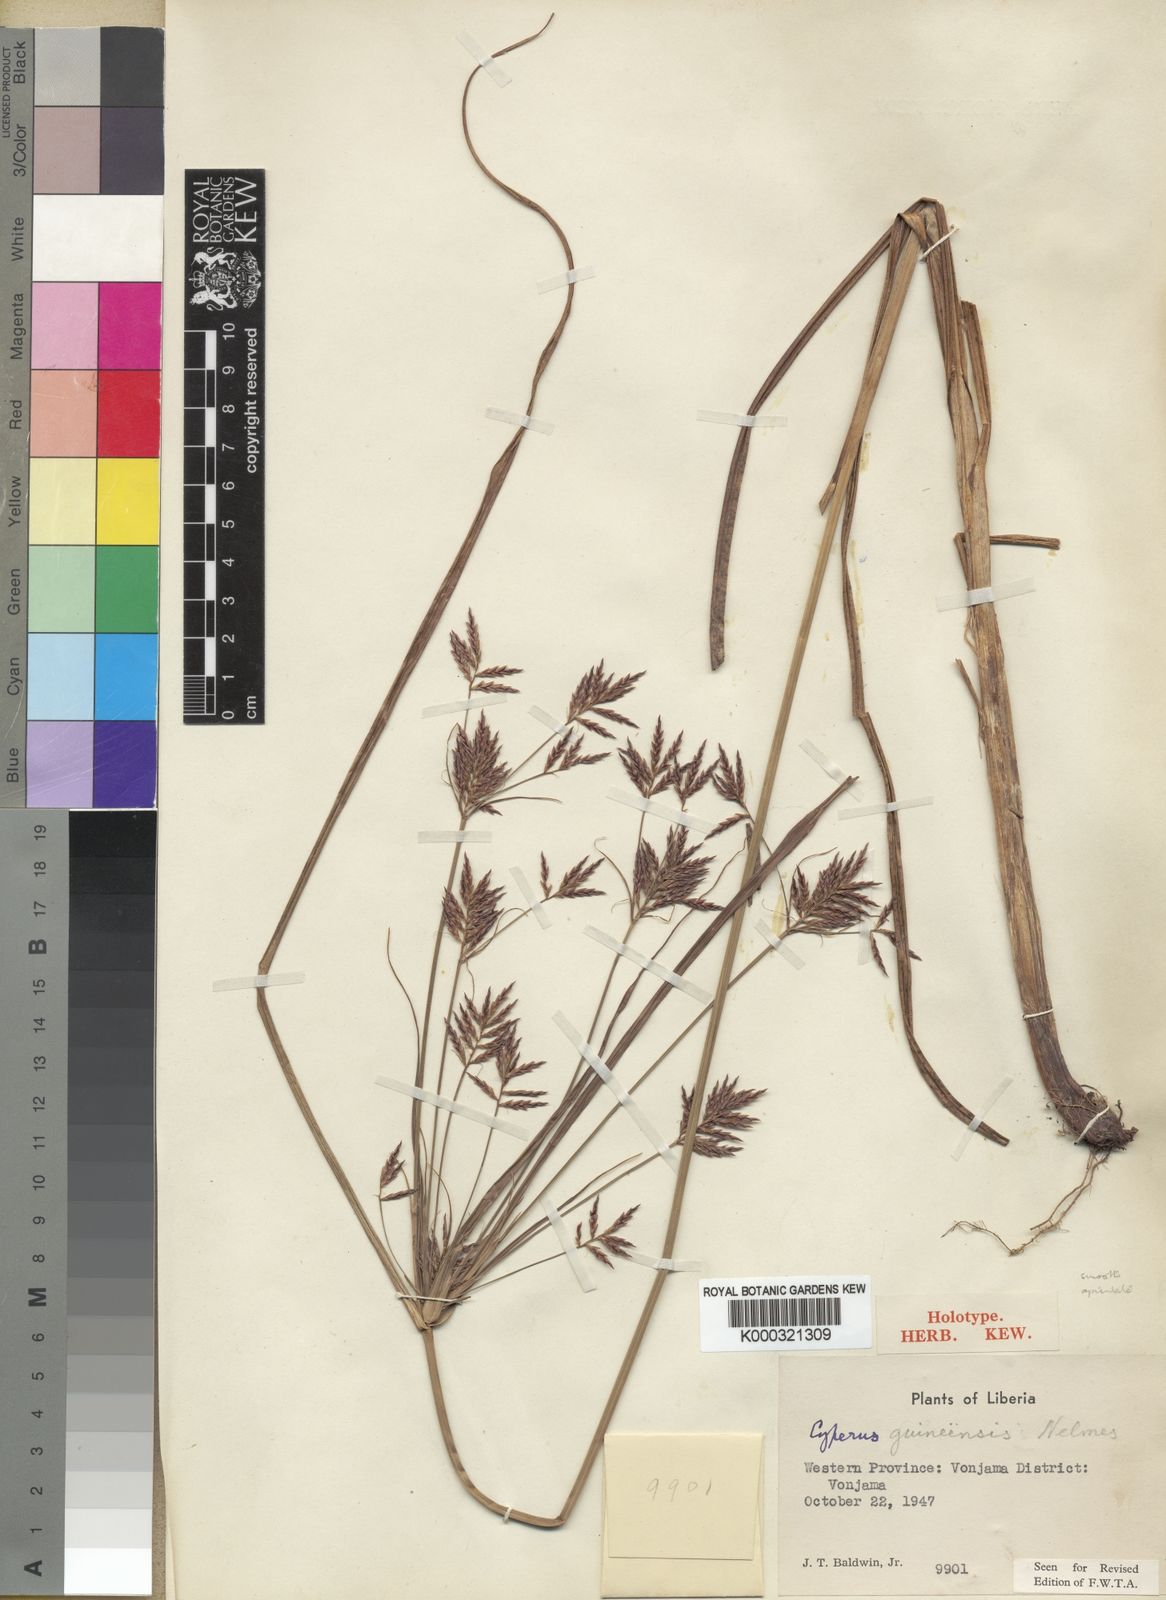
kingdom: Plantae
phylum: Tracheophyta
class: Liliopsida
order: Poales
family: Cyperaceae
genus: Cyperus
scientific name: Cyperus tenuiculmis
